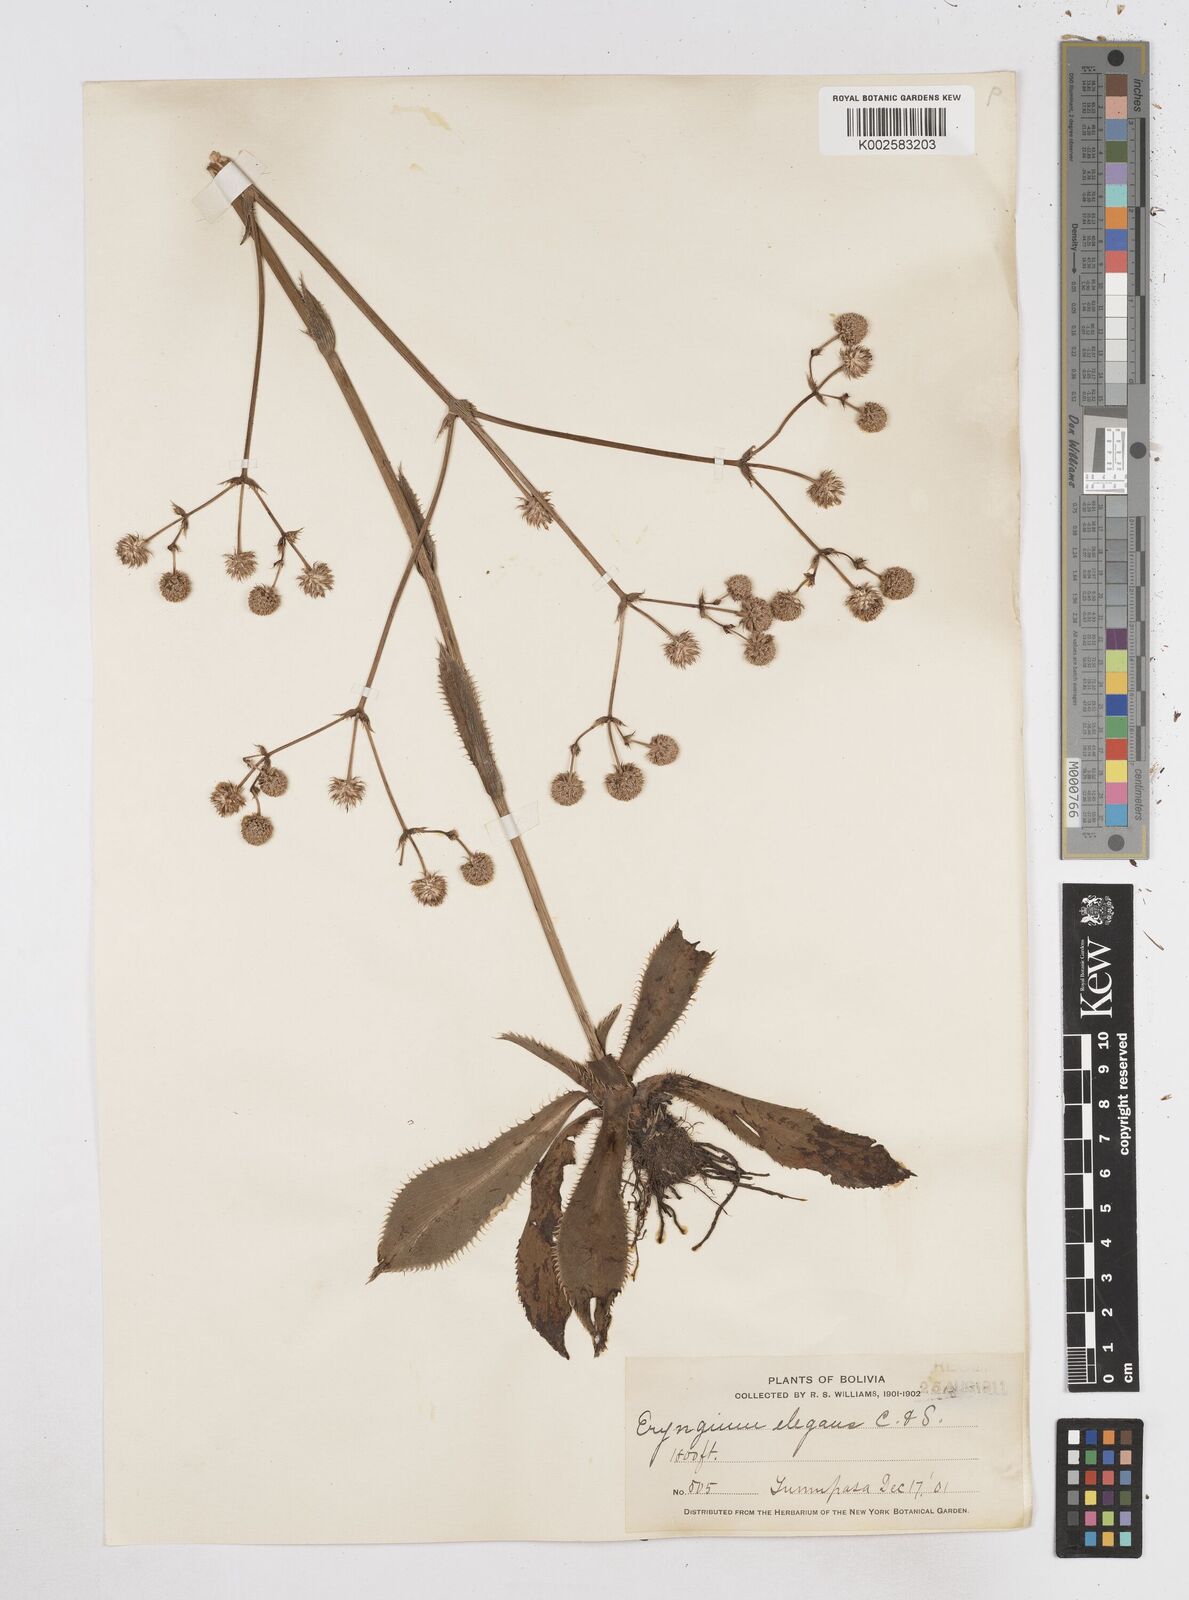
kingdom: Plantae
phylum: Tracheophyta
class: Magnoliopsida
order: Apiales
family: Apiaceae
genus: Eryngium
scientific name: Eryngium elegans
